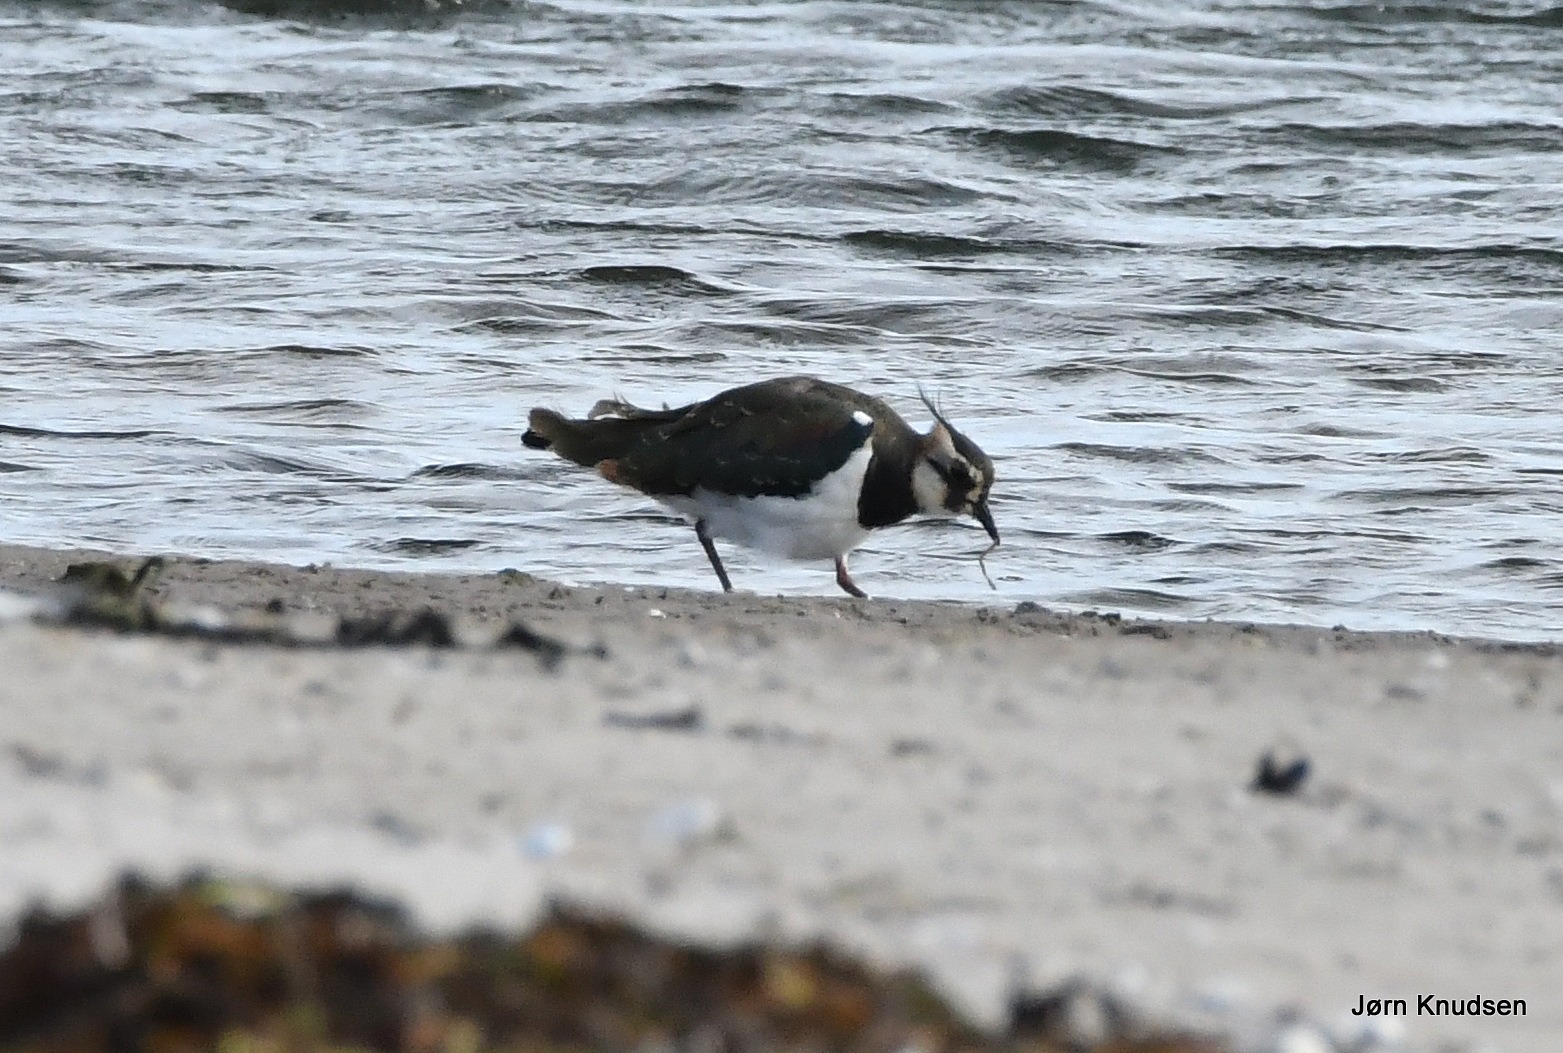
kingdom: Animalia
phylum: Chordata
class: Aves
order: Charadriiformes
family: Charadriidae
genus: Vanellus
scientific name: Vanellus vanellus
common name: Vibe
